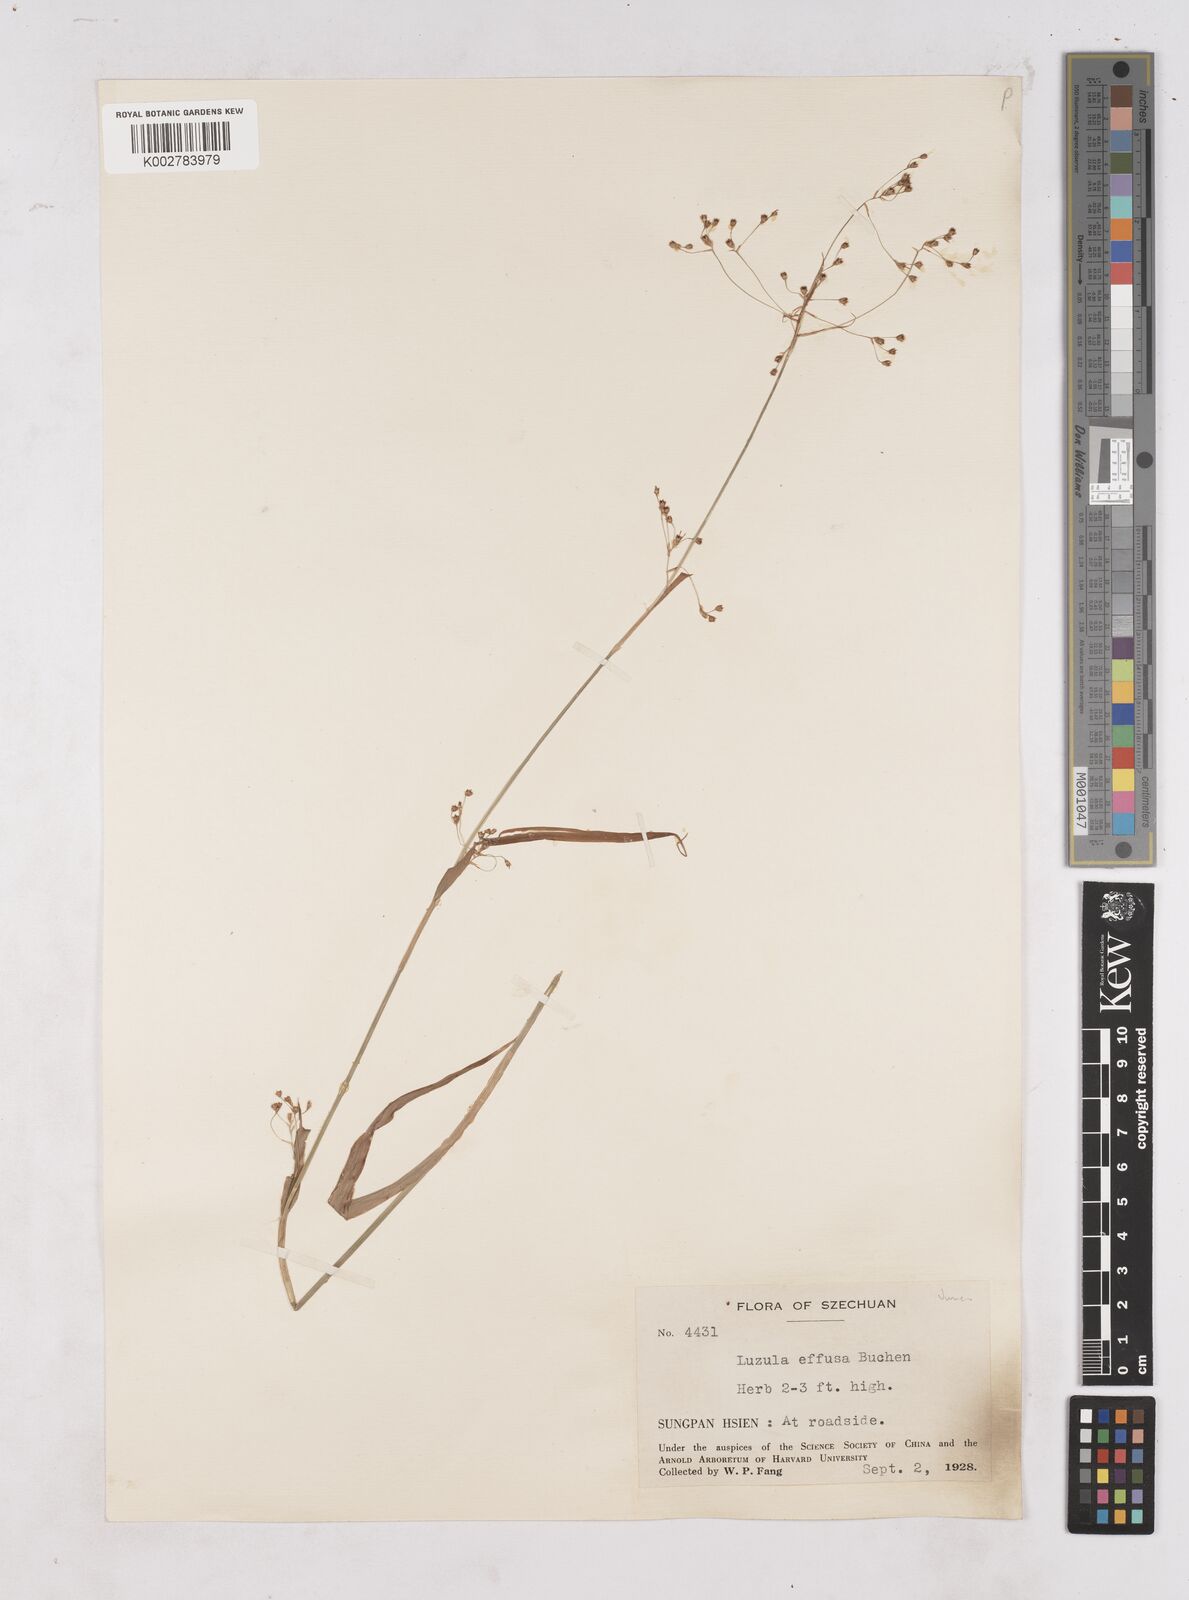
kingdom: Plantae
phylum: Tracheophyta
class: Liliopsida
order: Poales
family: Juncaceae
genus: Luzula
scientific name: Luzula effusa
